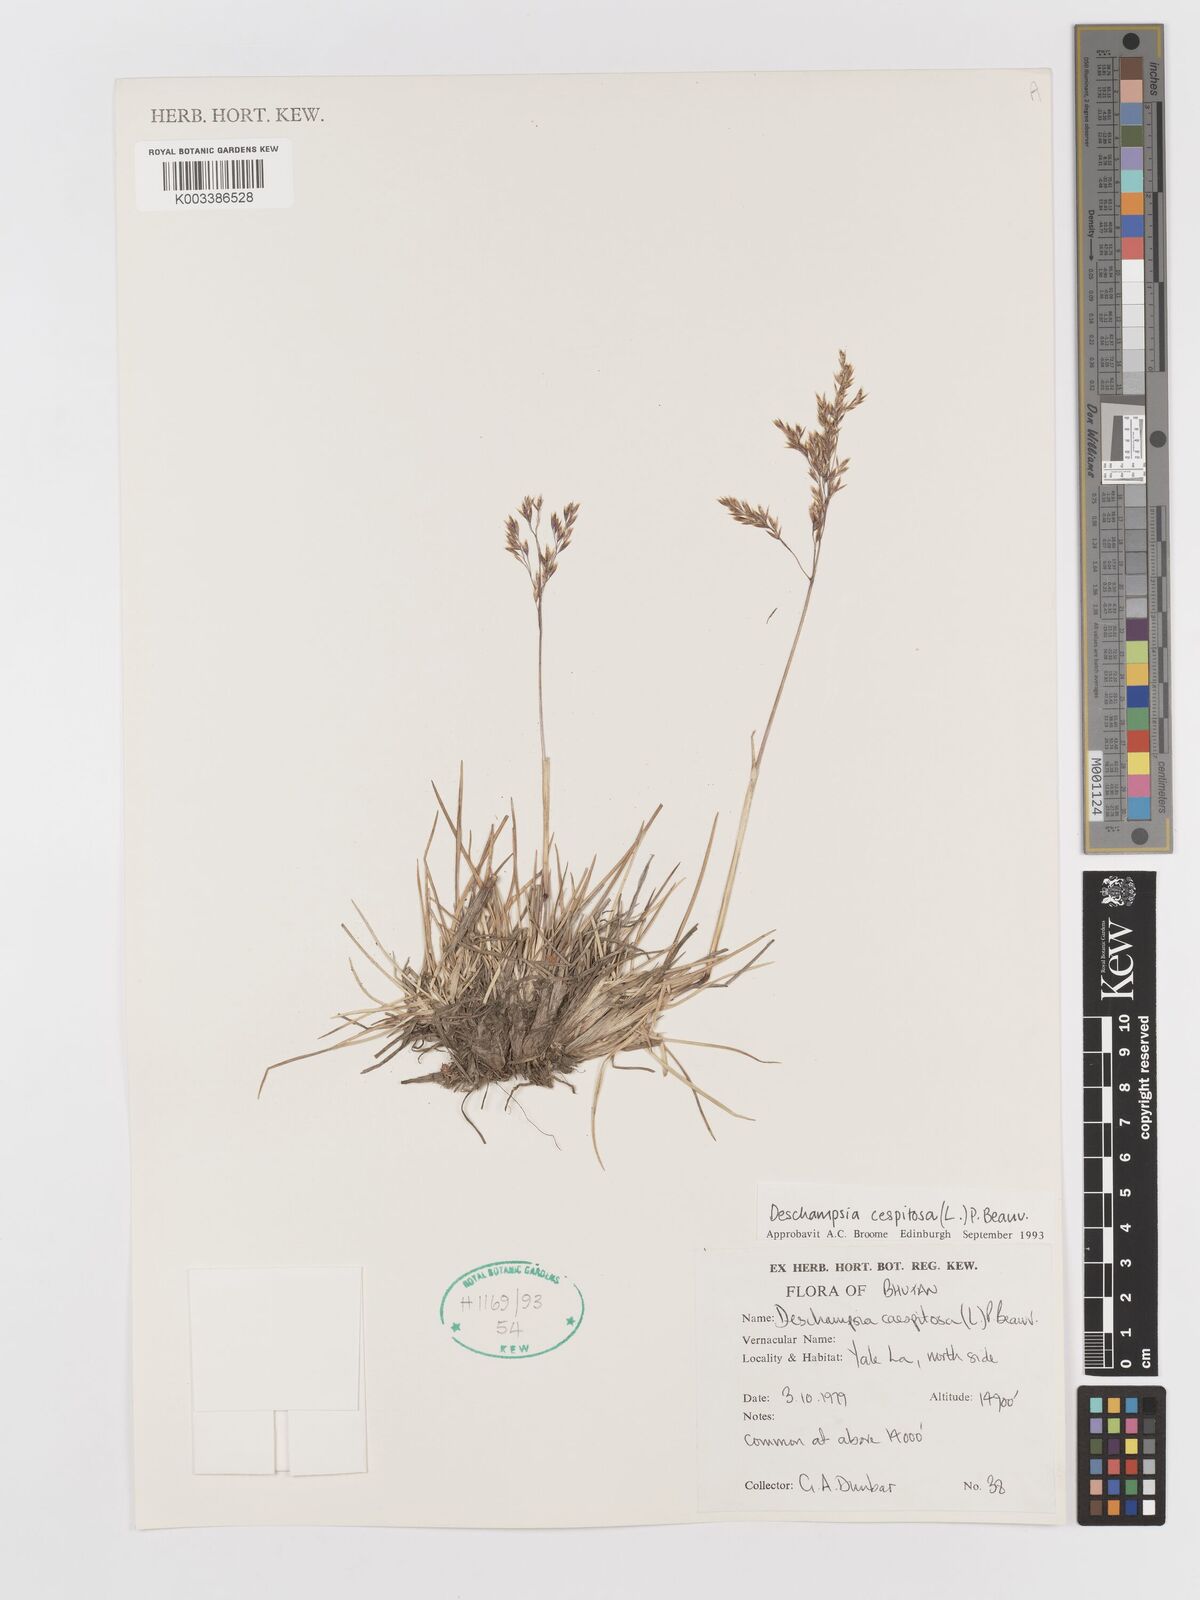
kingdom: Plantae
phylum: Tracheophyta
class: Liliopsida
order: Poales
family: Poaceae
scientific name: Poaceae
